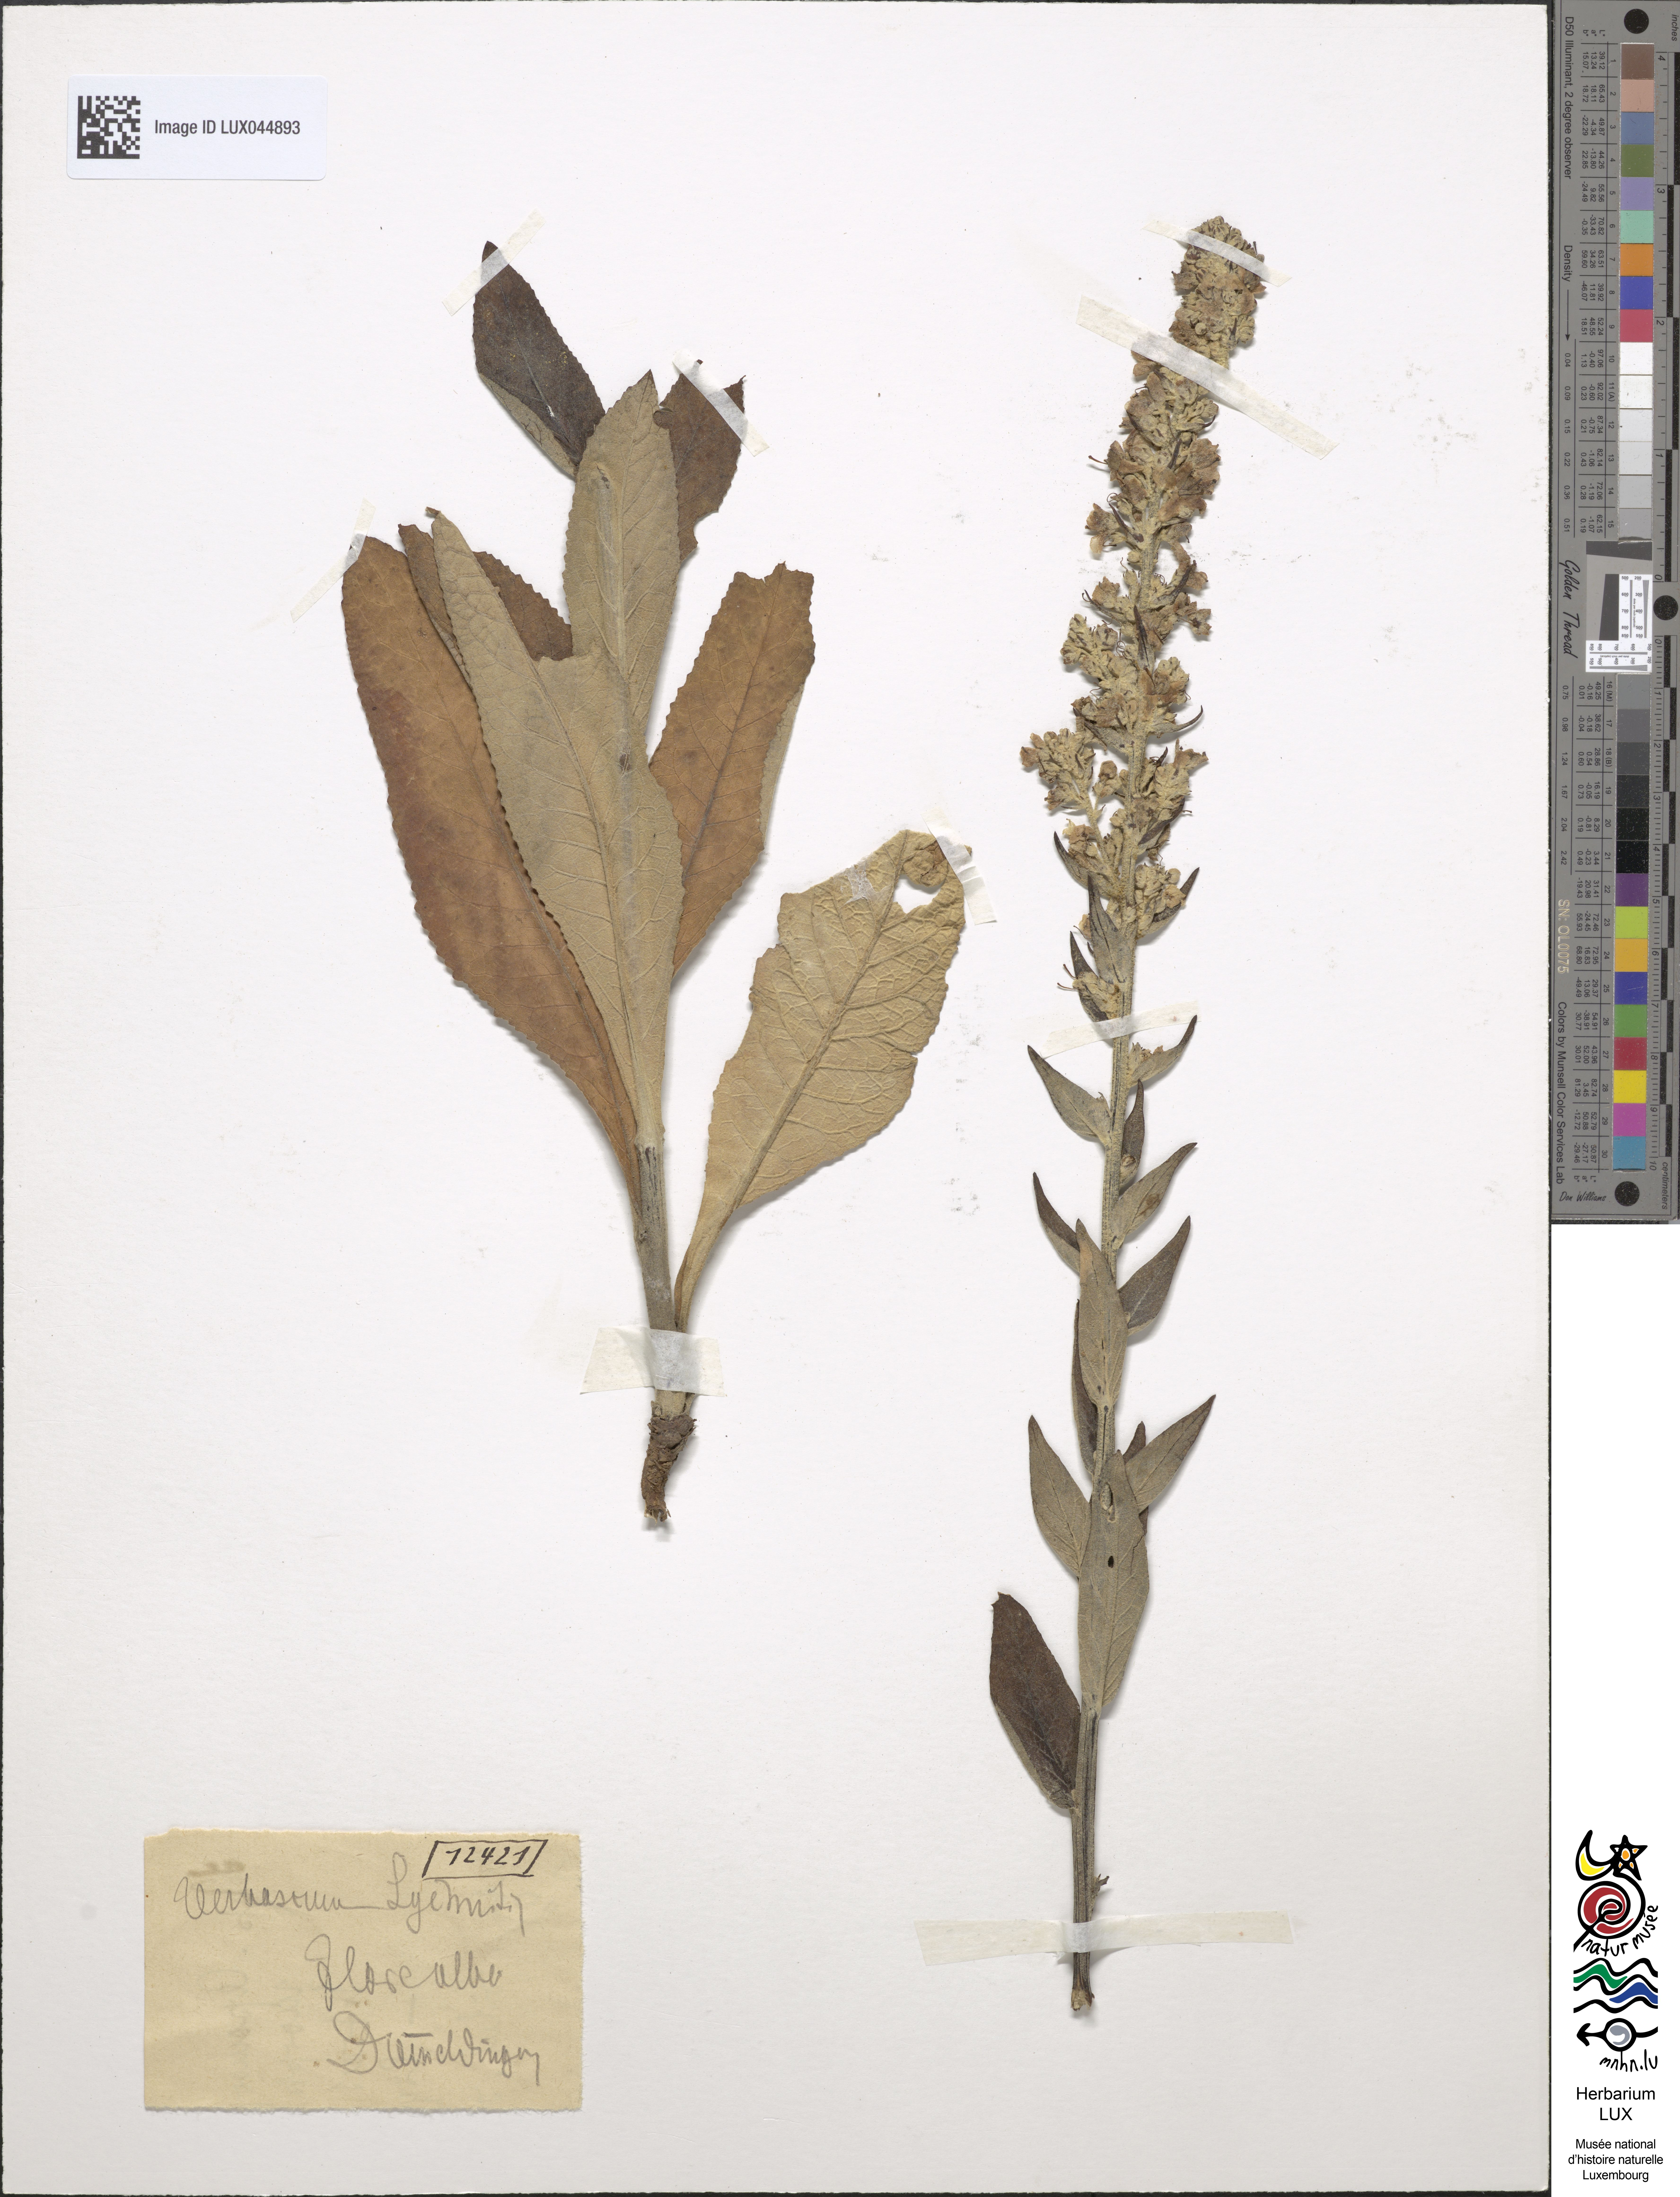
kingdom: Plantae
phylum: Tracheophyta
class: Magnoliopsida
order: Lamiales
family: Scrophulariaceae
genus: Verbascum
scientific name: Verbascum lychnitis
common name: White mullein
